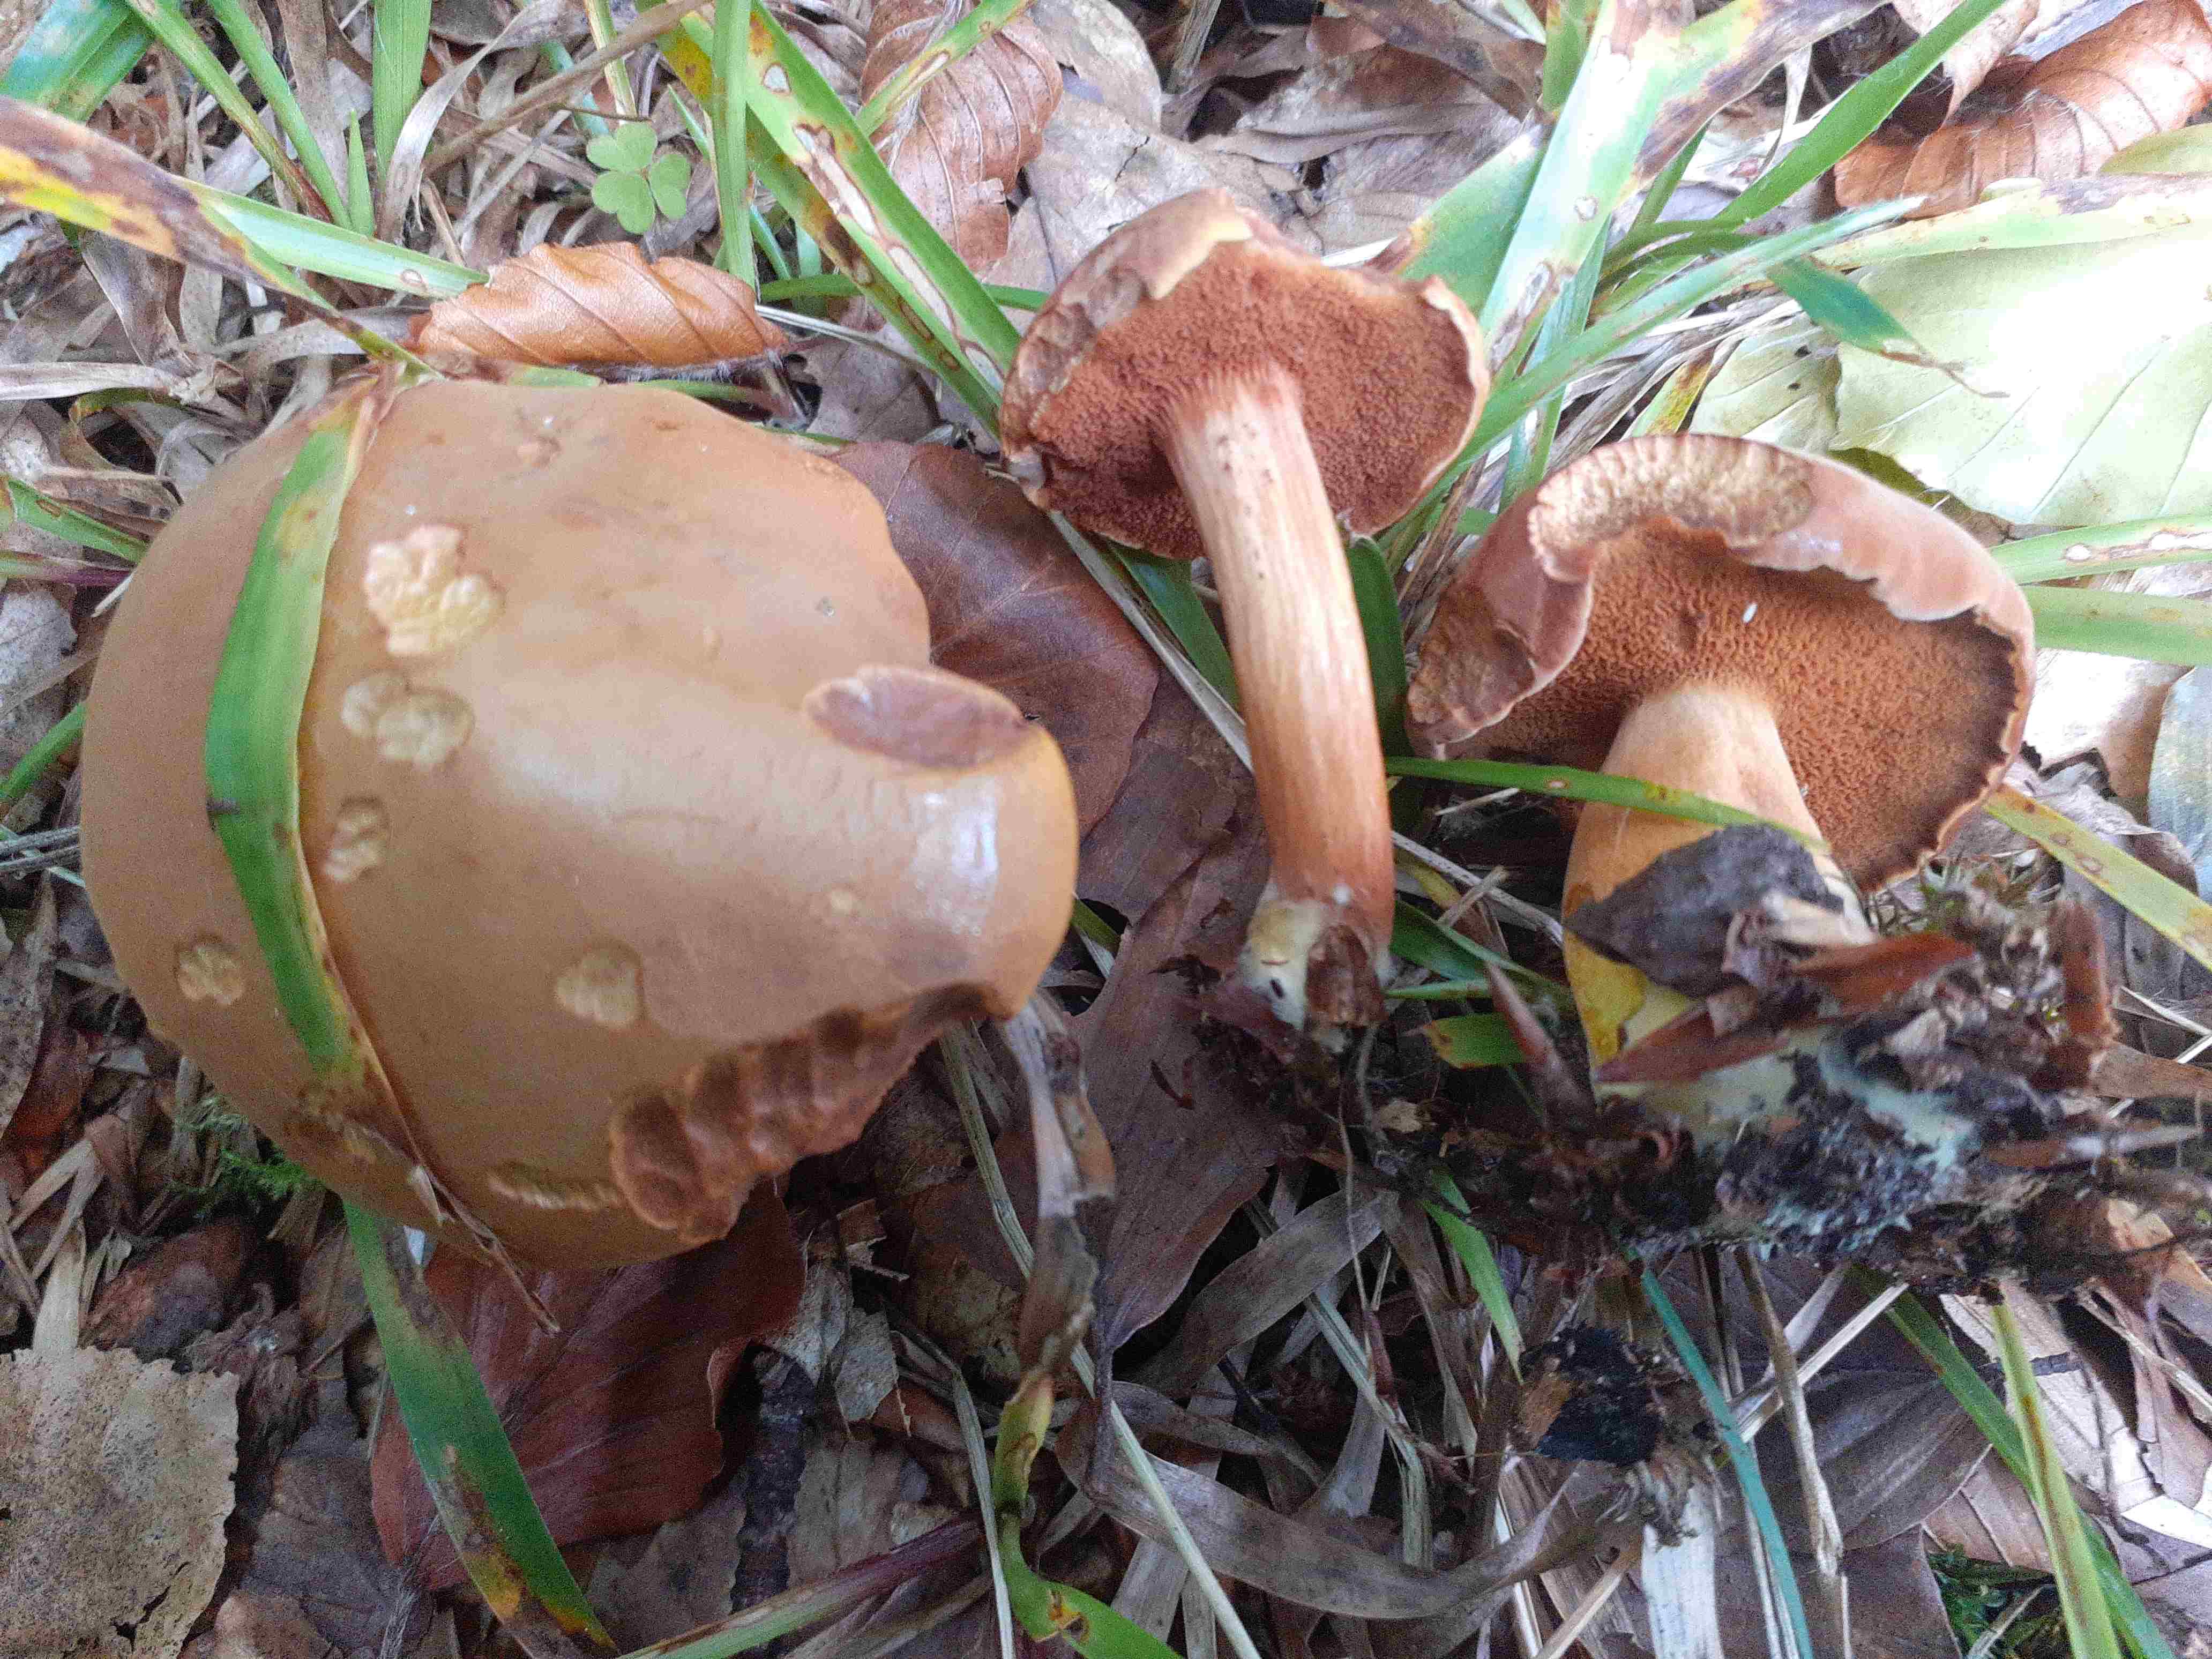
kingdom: Fungi
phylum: Basidiomycota
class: Agaricomycetes
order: Boletales
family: Boletaceae
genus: Chalciporus
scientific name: Chalciporus piperatus
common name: peberrørhat
